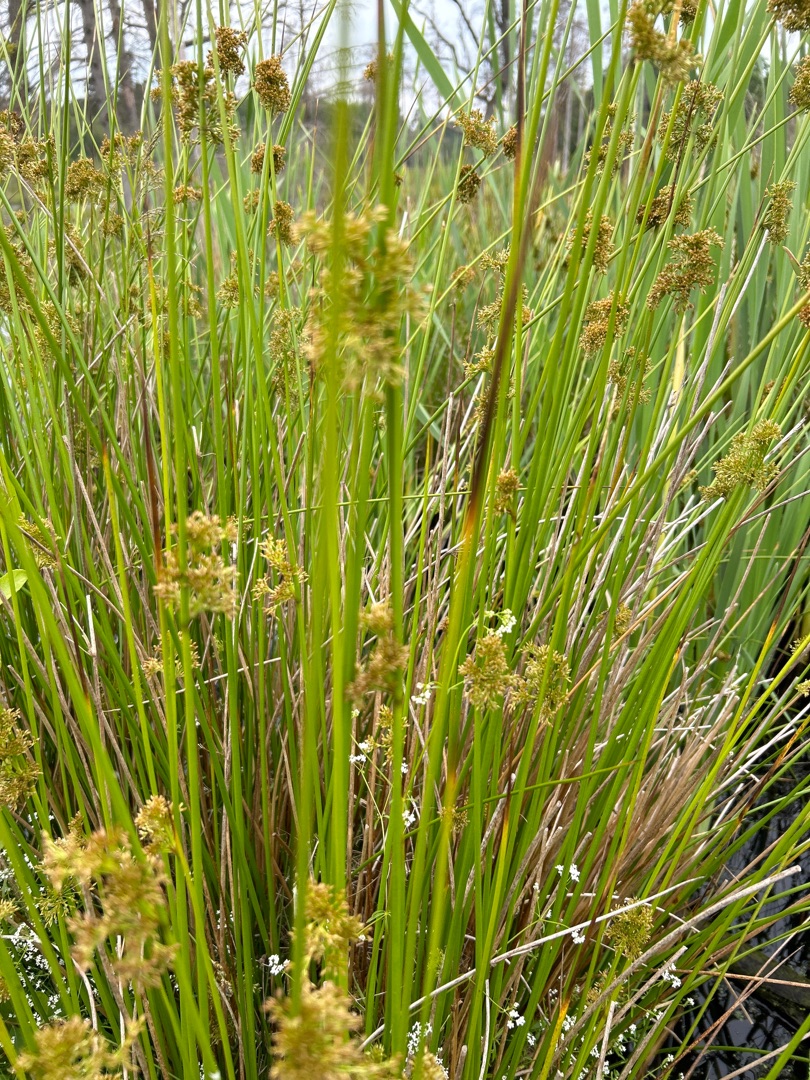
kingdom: Plantae
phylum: Tracheophyta
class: Liliopsida
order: Poales
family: Juncaceae
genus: Juncus
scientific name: Juncus effusus
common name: Lyse-siv
